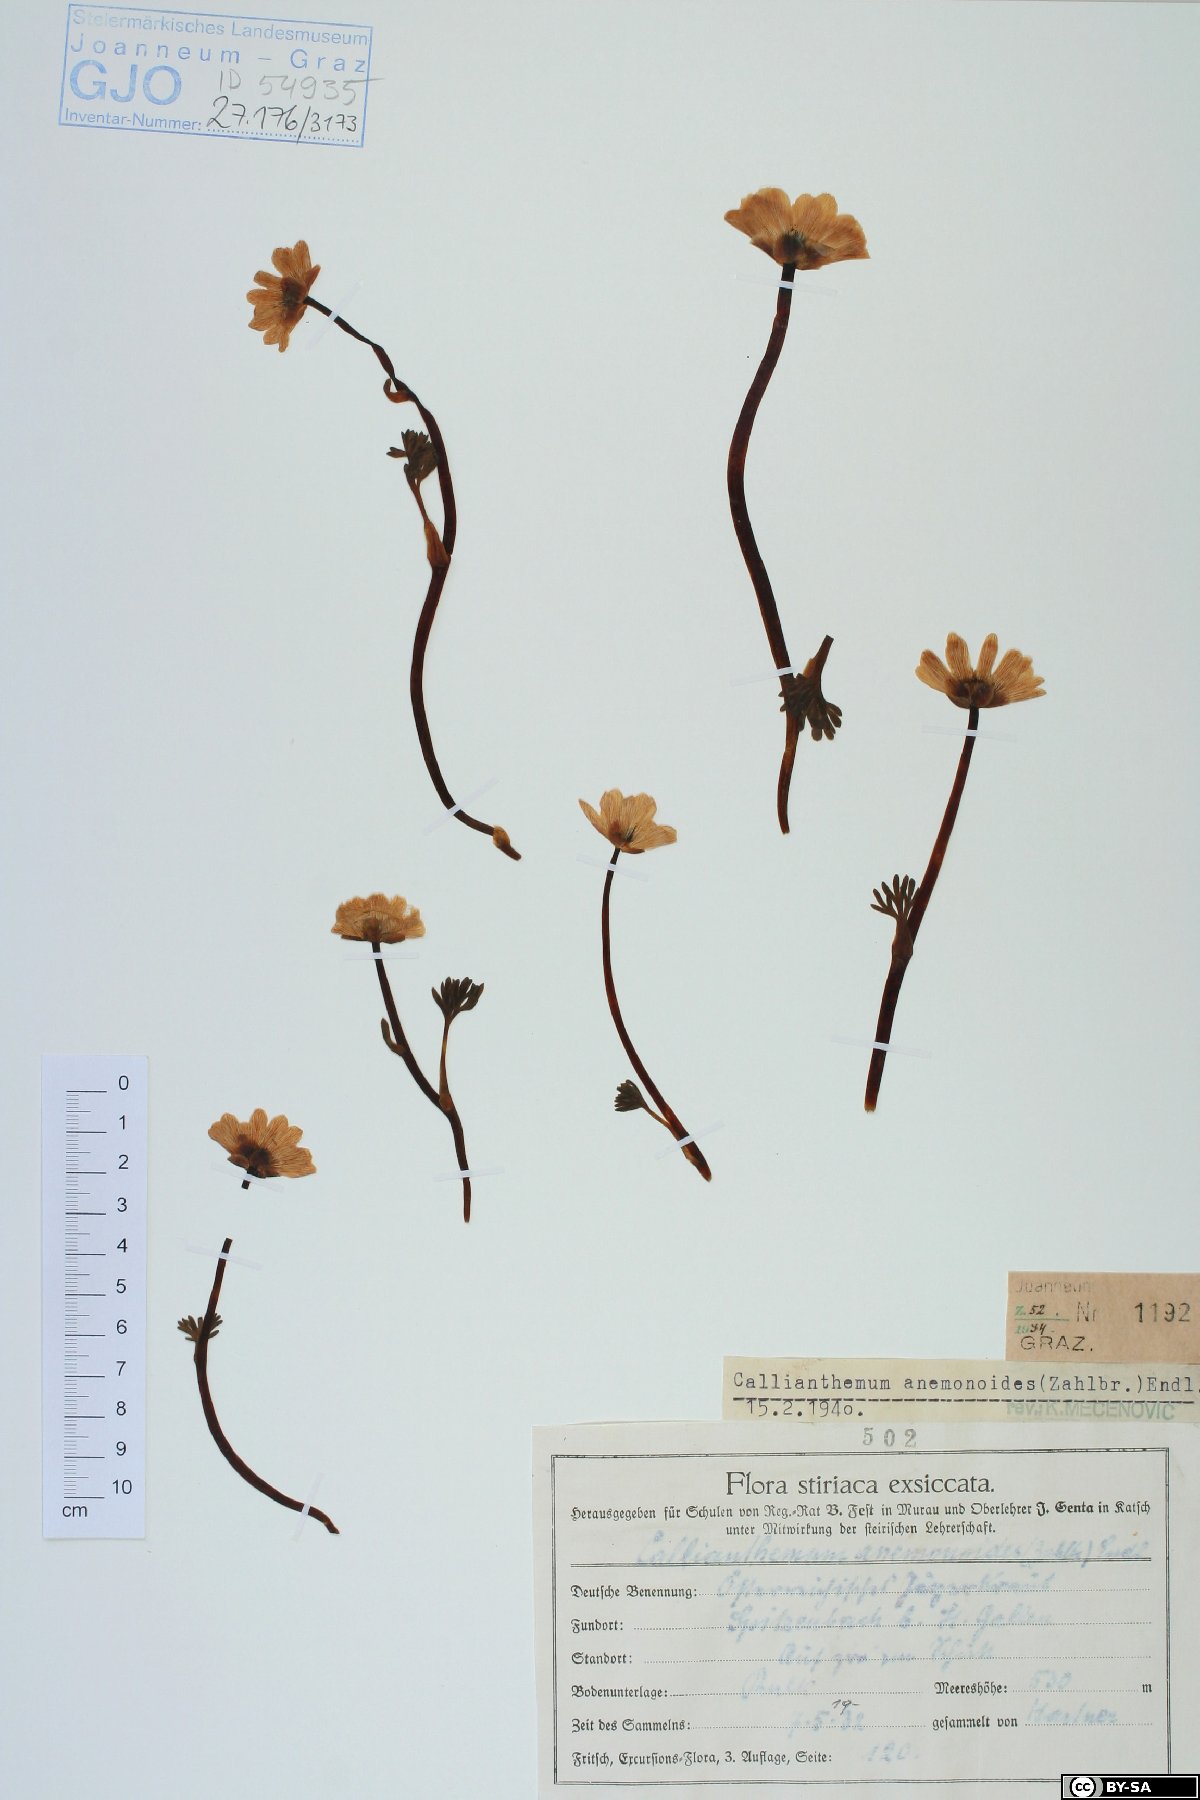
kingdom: Plantae
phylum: Tracheophyta
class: Magnoliopsida
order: Ranunculales
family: Ranunculaceae
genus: Callianthemum
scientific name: Callianthemum anemonoides
